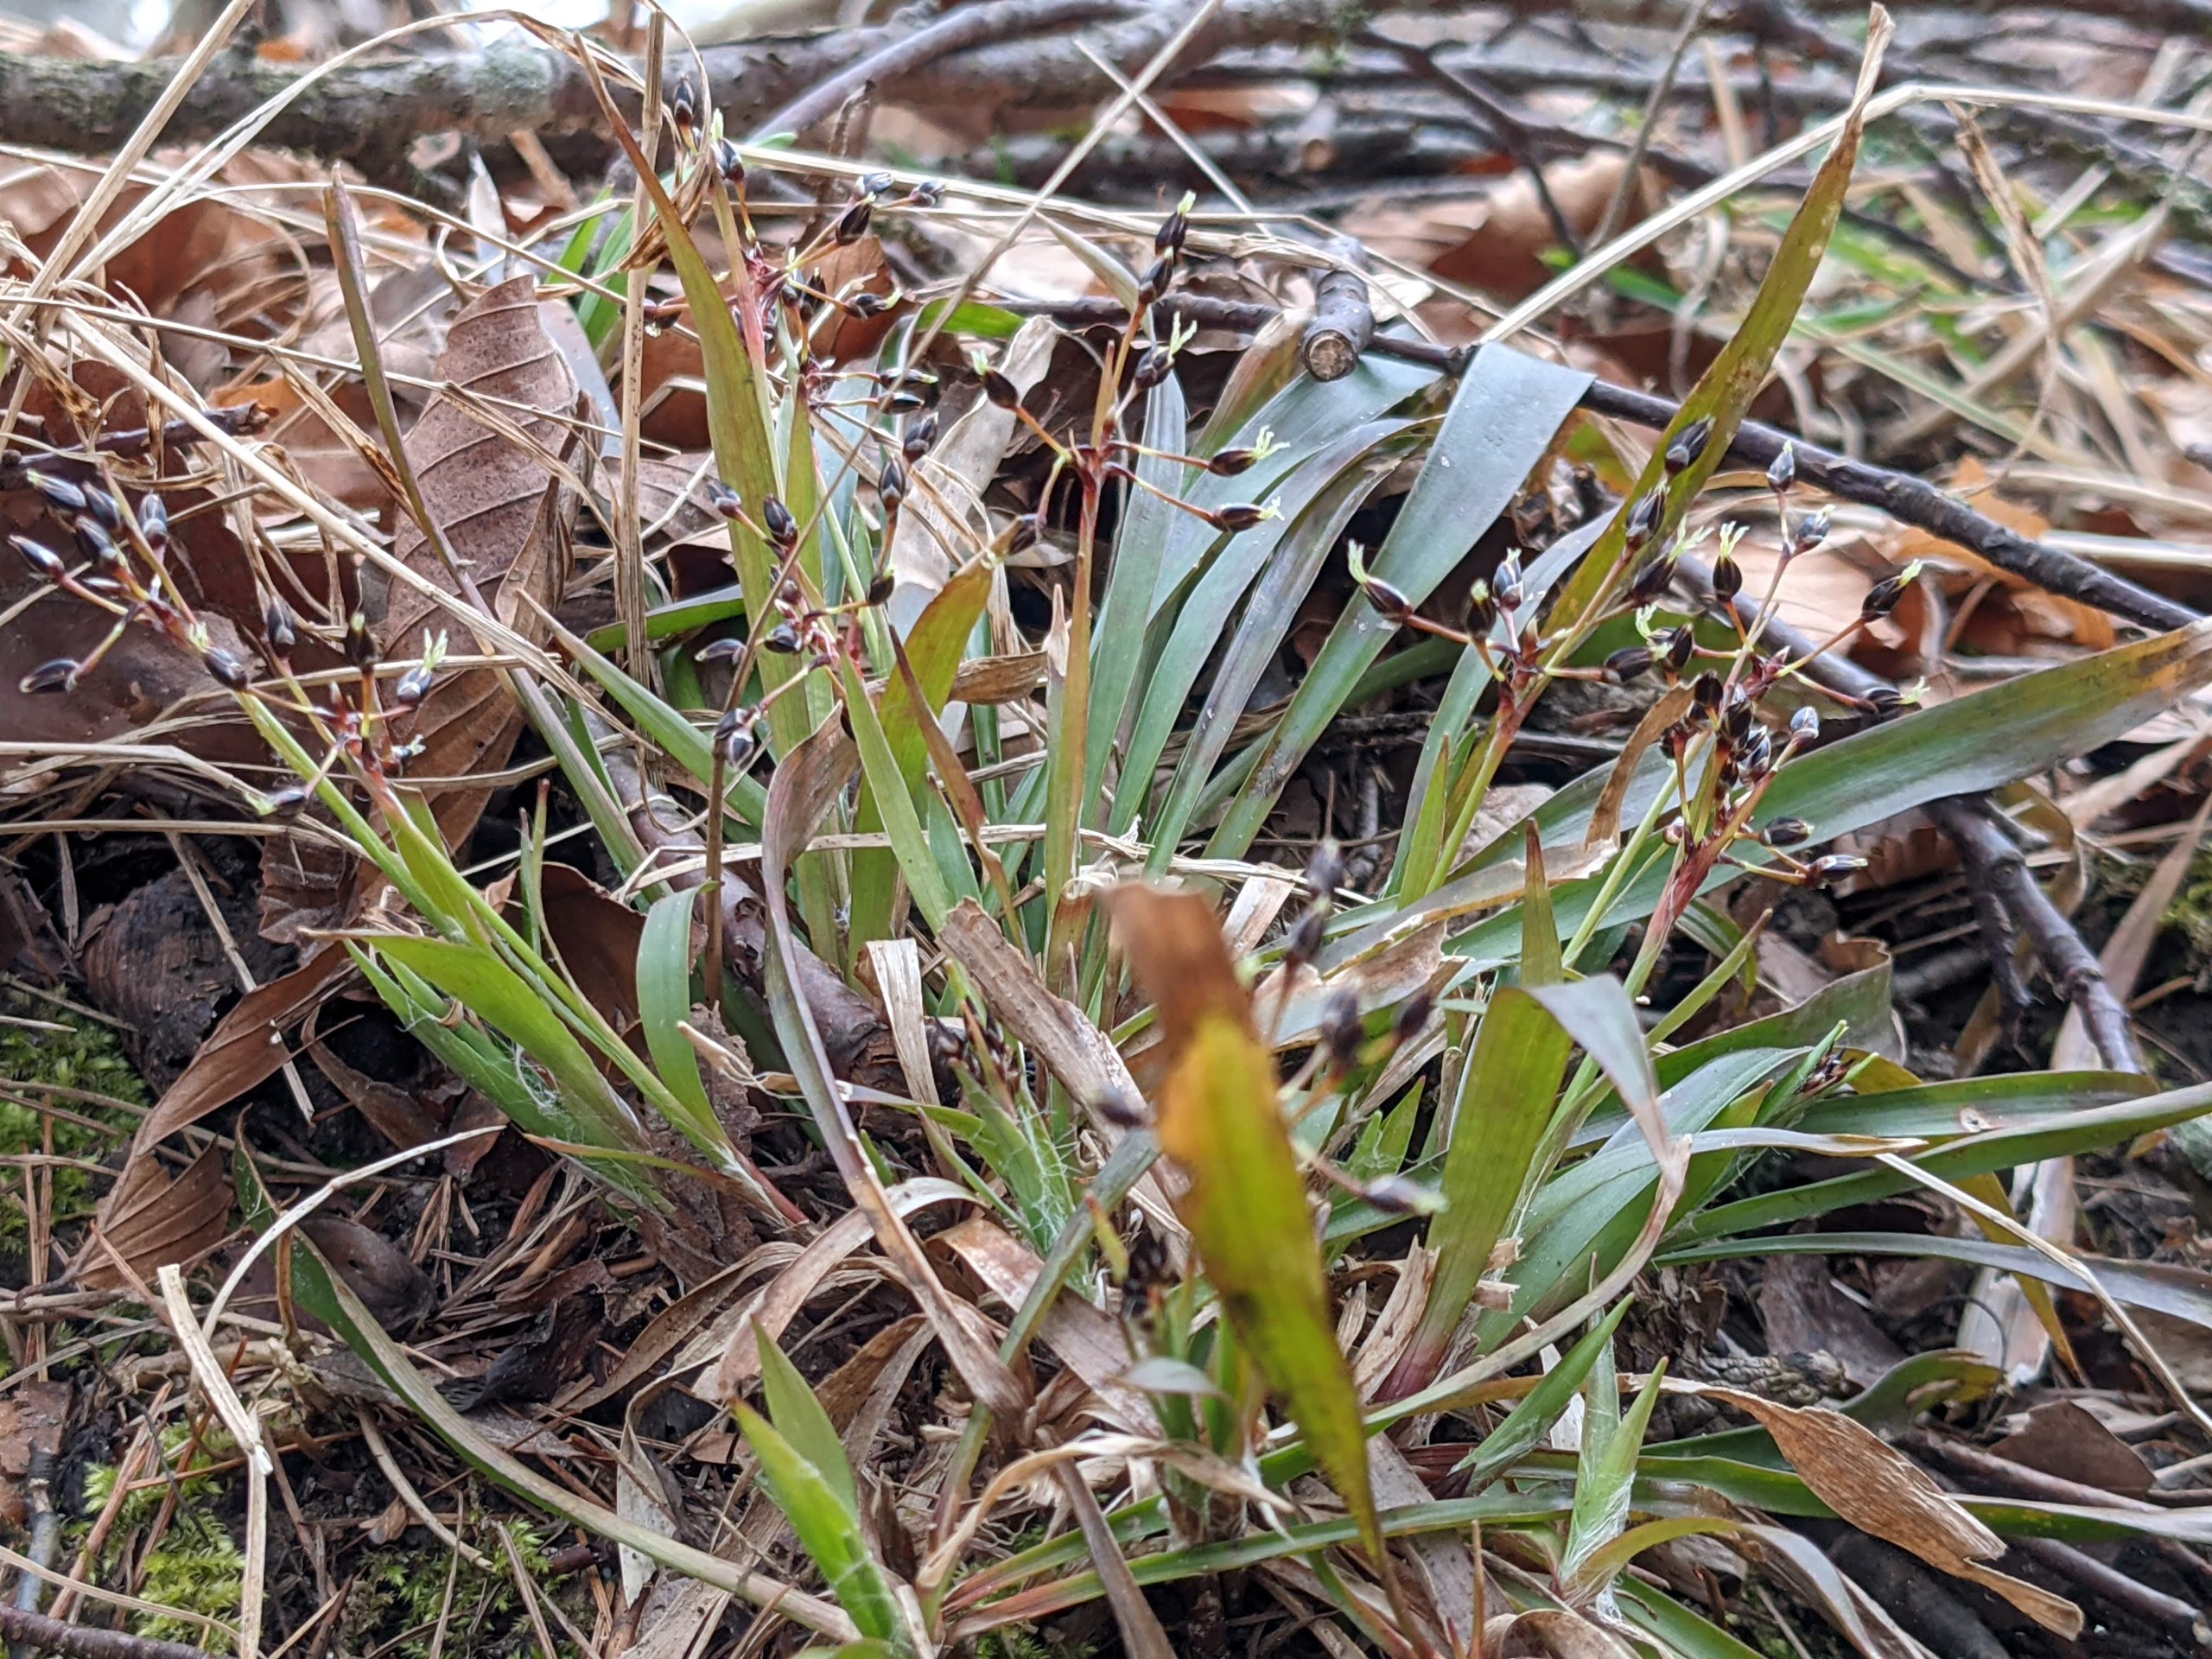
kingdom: Plantae
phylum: Tracheophyta
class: Liliopsida
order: Poales
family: Juncaceae
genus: Luzula
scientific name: Luzula pilosa
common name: Håret frytle
